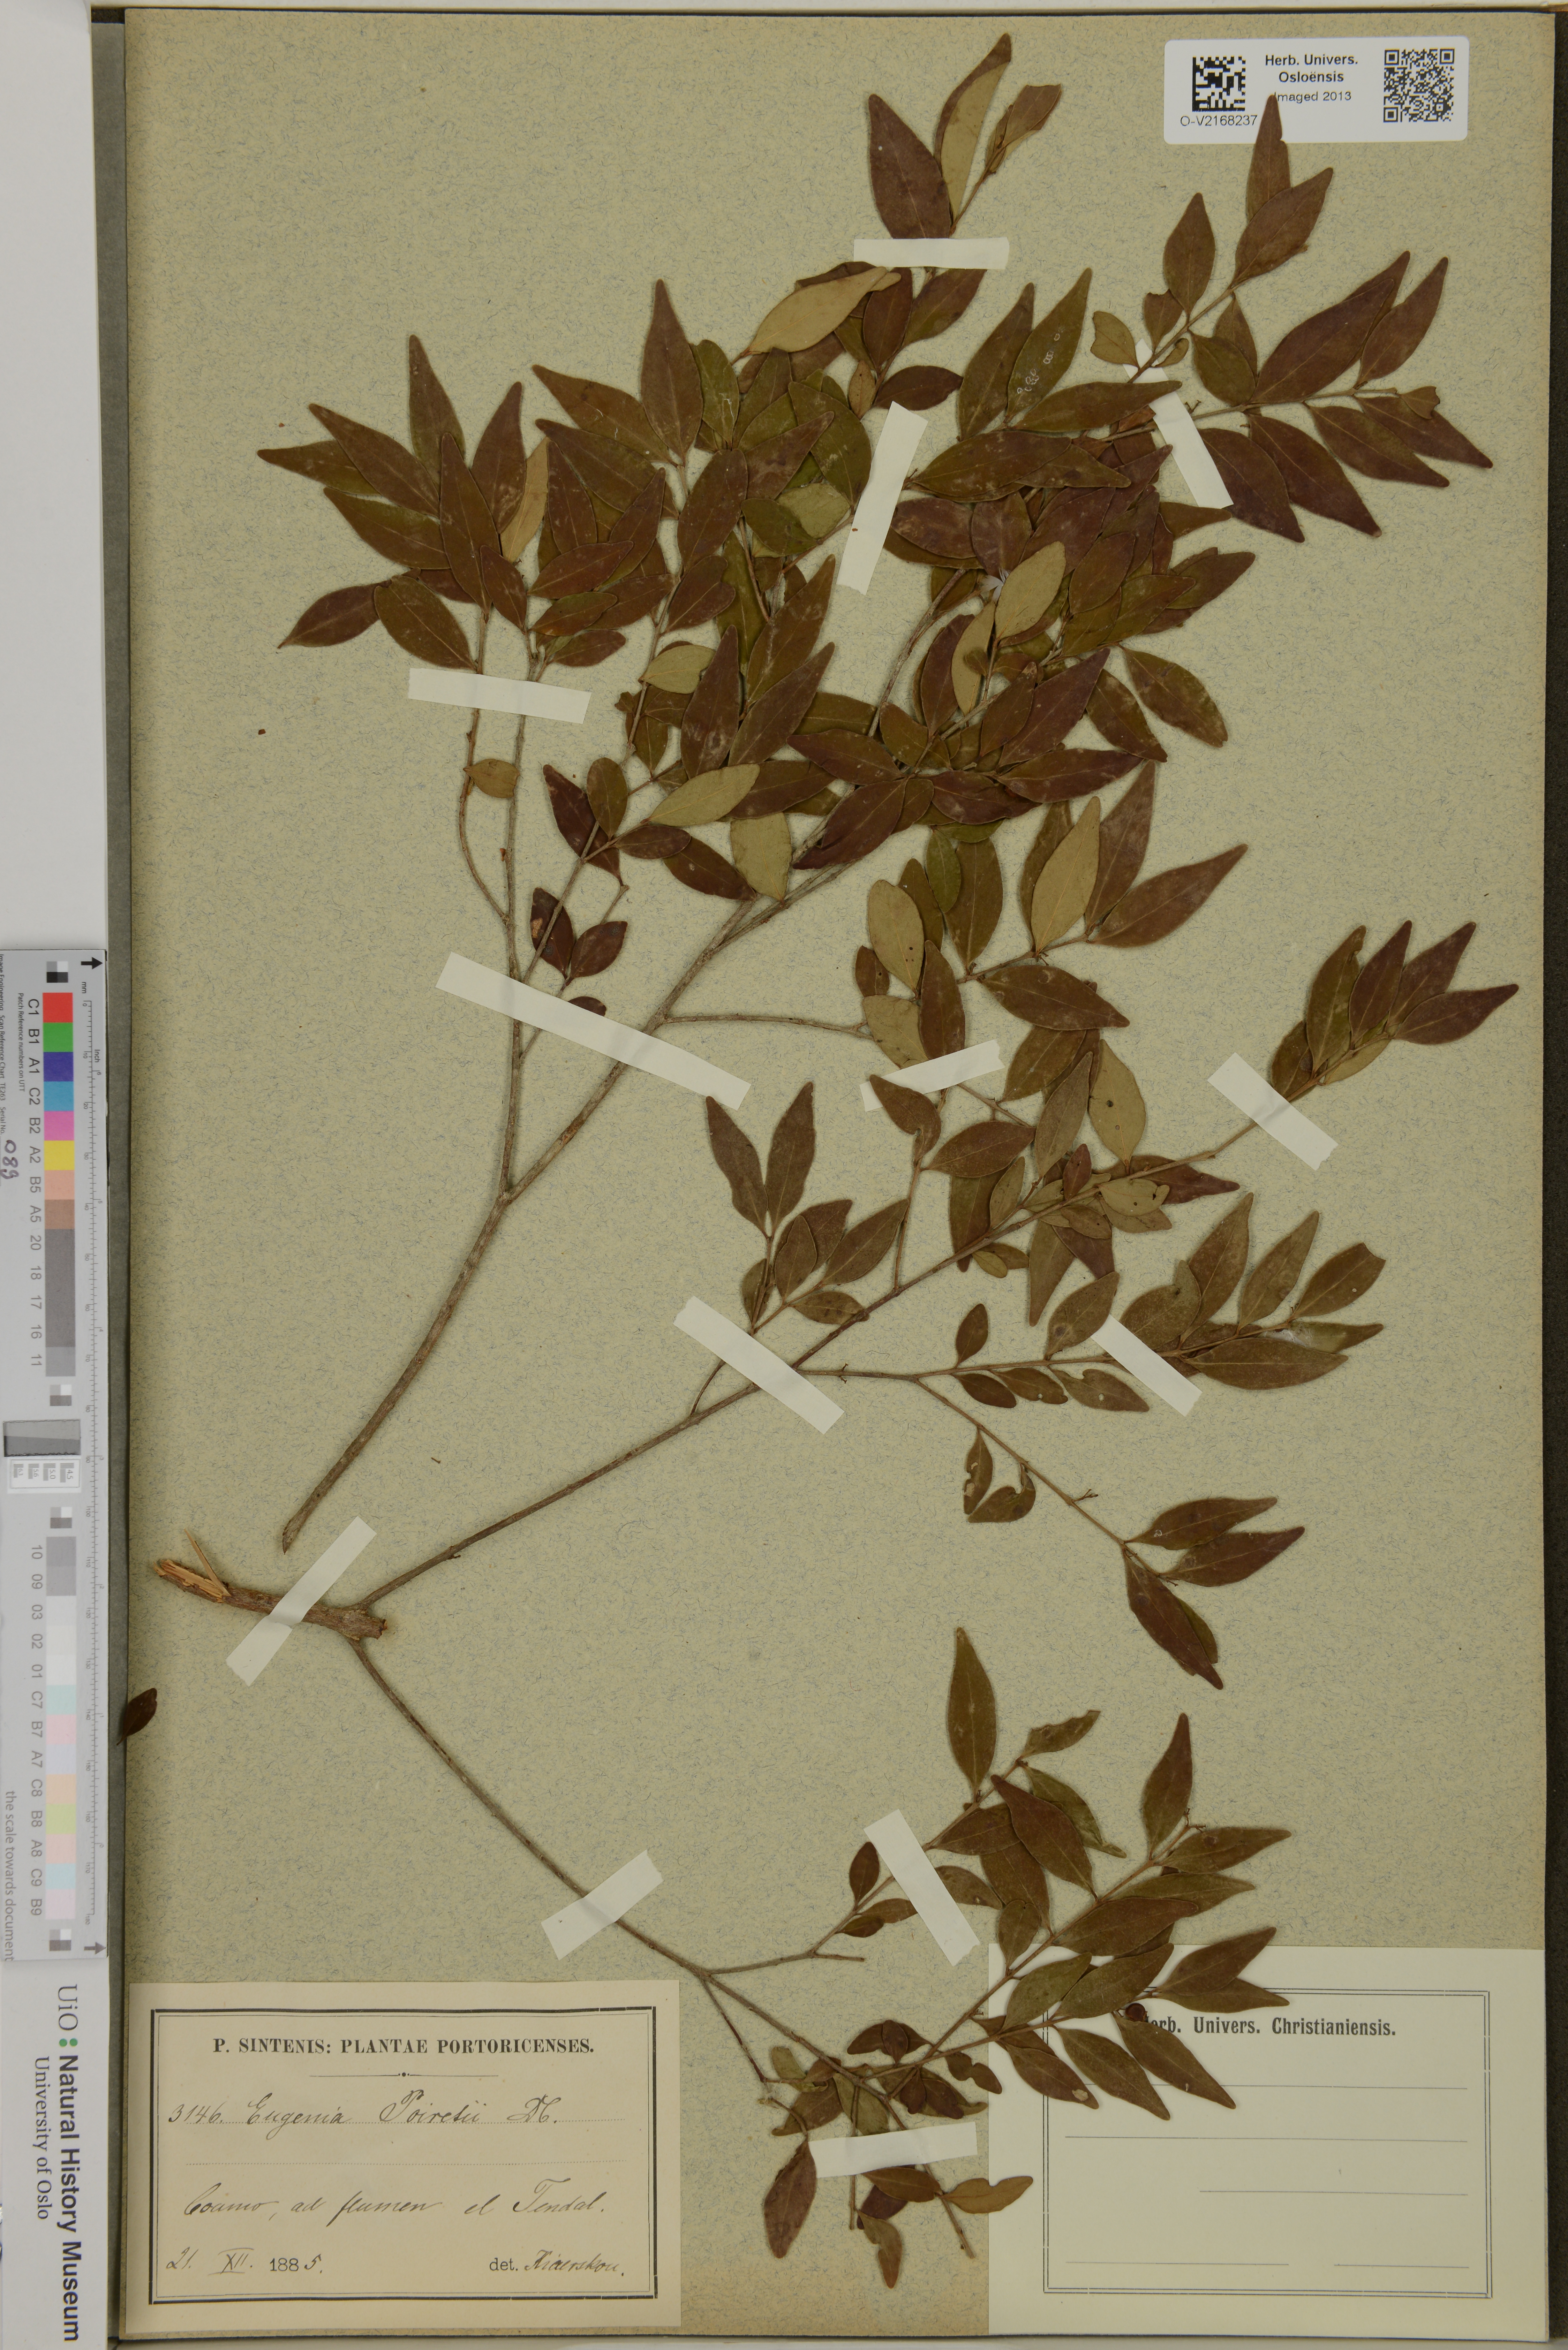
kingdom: Plantae
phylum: Tracheophyta
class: Magnoliopsida
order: Myrtales
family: Myrtaceae
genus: Eugenia
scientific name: Eugenia
